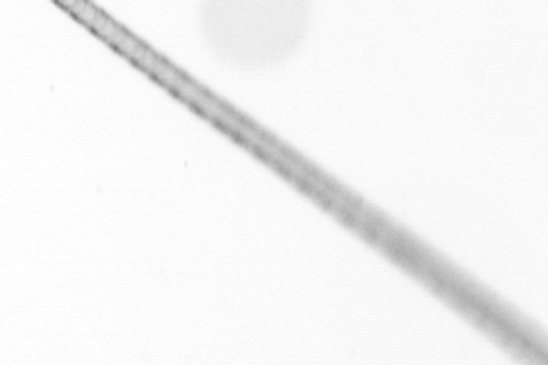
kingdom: Chromista
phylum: Ochrophyta
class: Bacillariophyceae
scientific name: Bacillariophyceae
